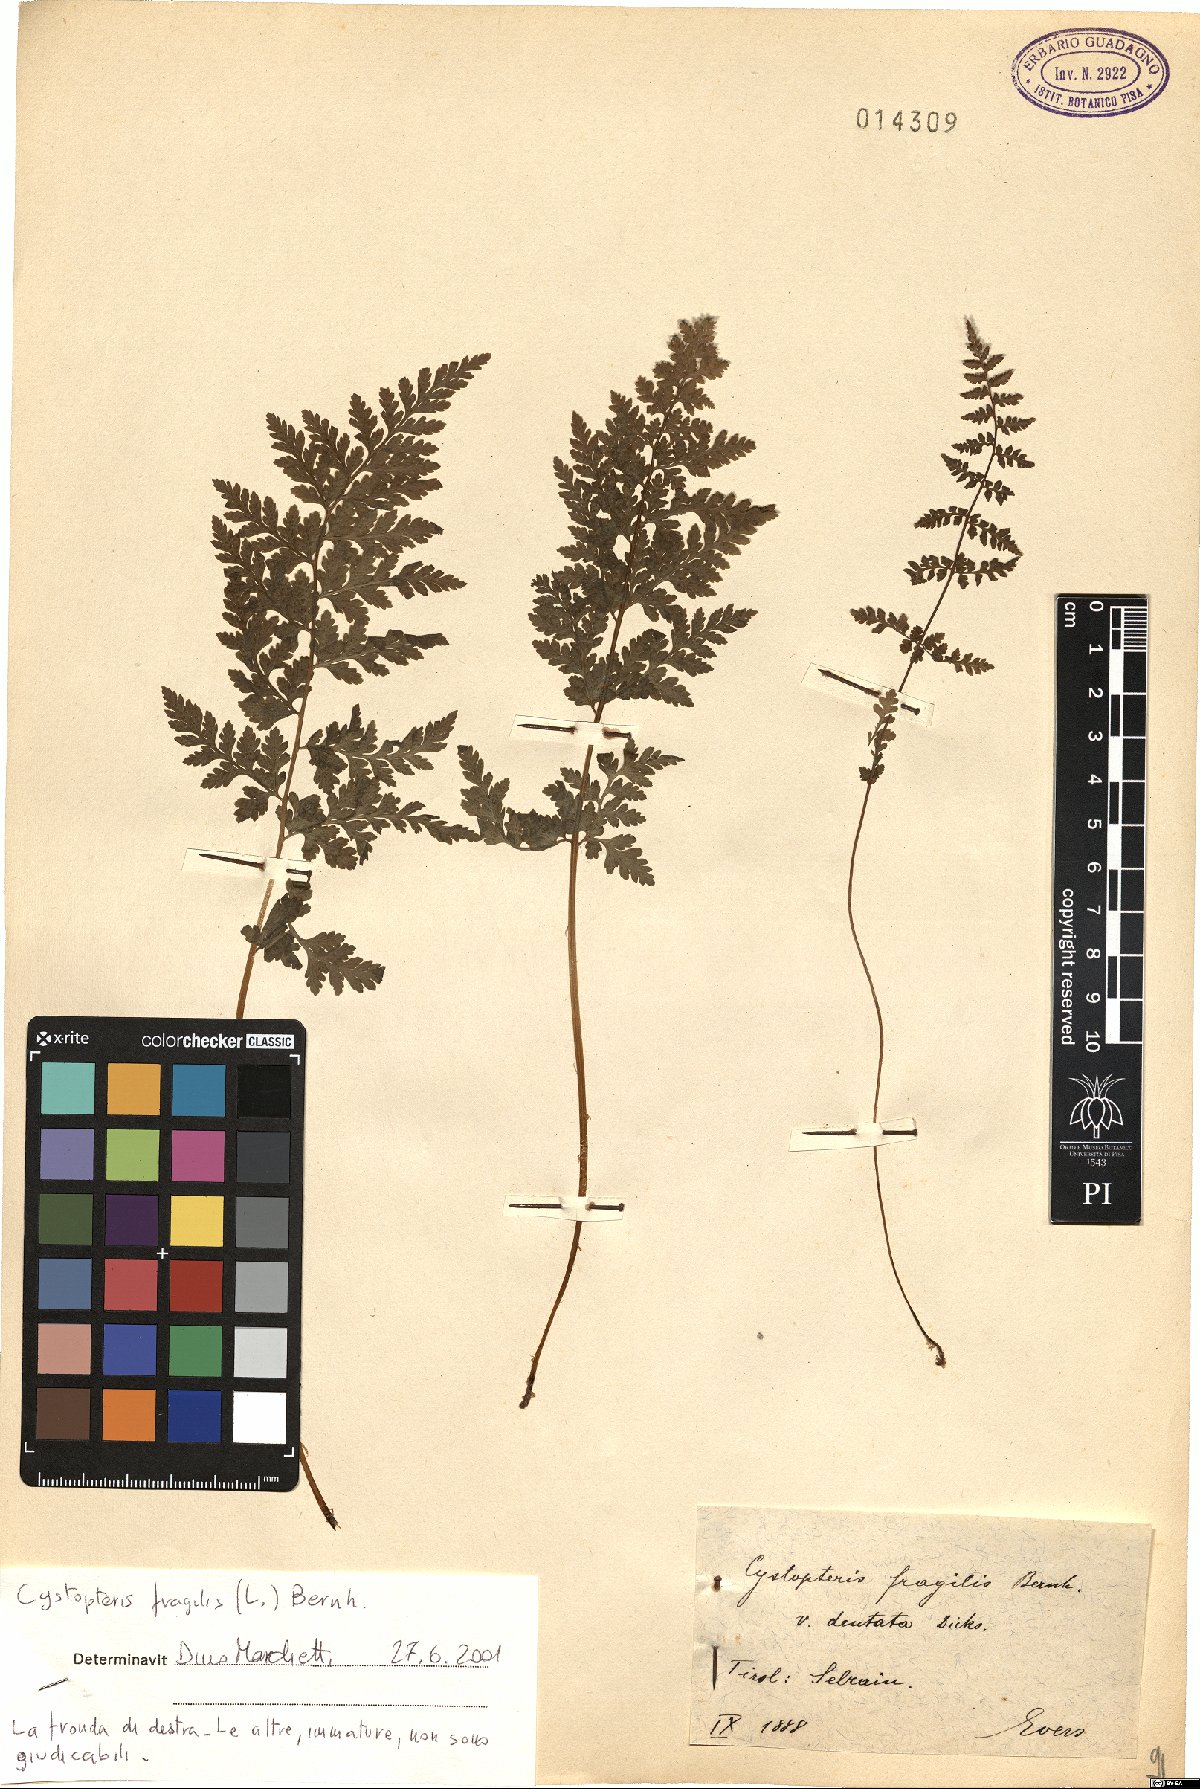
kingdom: Plantae
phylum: Tracheophyta
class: Polypodiopsida
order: Polypodiales
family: Cystopteridaceae
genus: Cystopteris
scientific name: Cystopteris fragilis
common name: Brittle bladder fern
